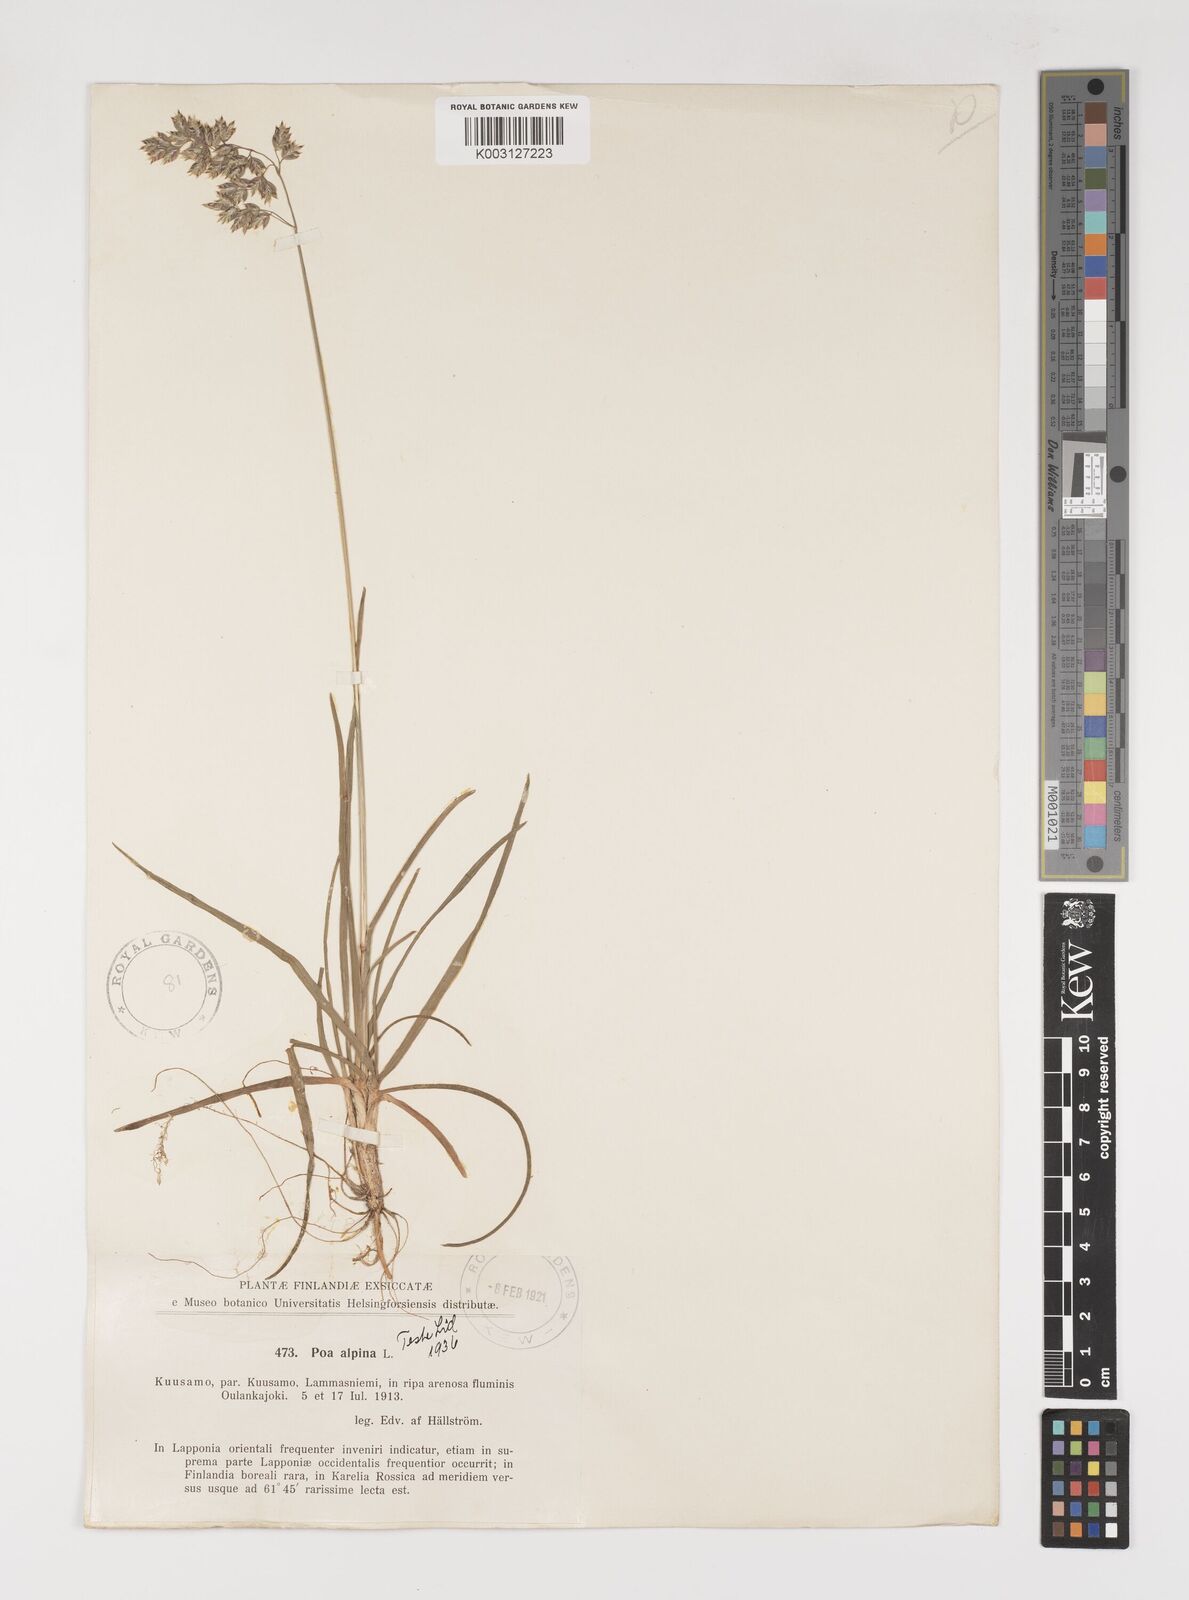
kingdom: Plantae
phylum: Tracheophyta
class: Liliopsida
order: Poales
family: Poaceae
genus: Poa
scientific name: Poa alpina
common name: Alpine bluegrass
